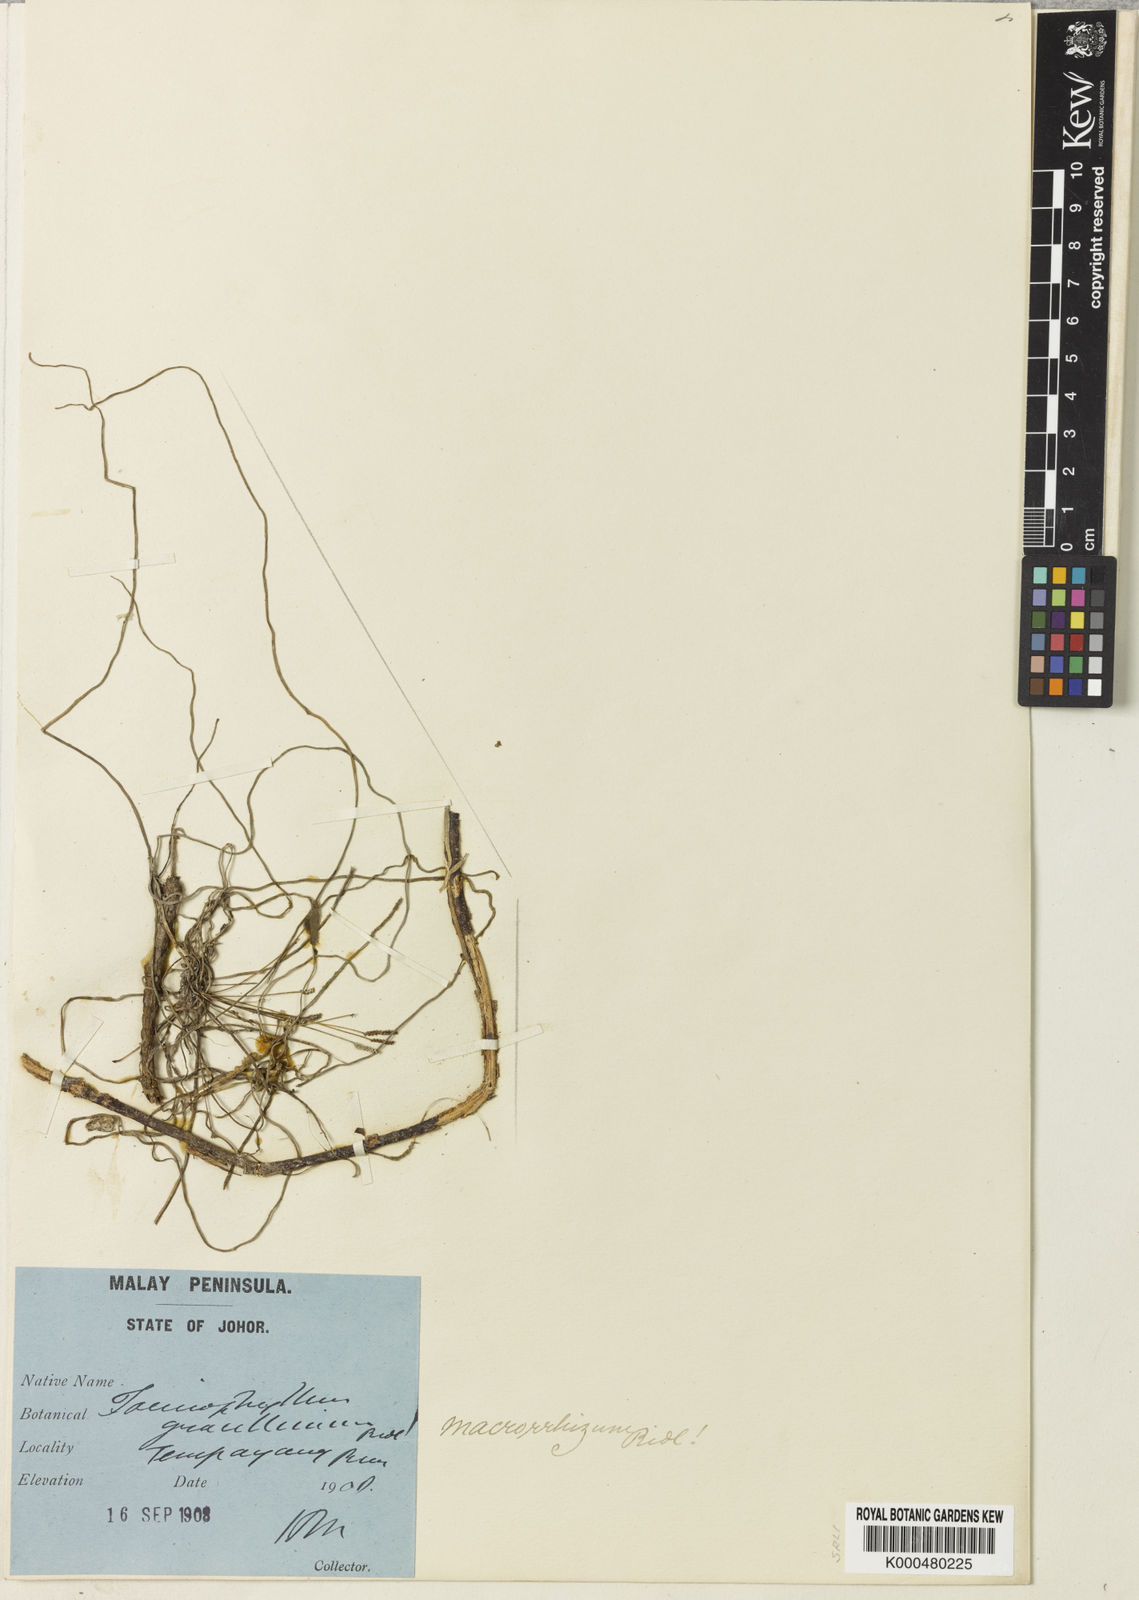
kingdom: Plantae
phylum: Tracheophyta
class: Liliopsida
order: Asparagales
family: Orchidaceae
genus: Taeniophyllum
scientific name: Taeniophyllum filiforme
